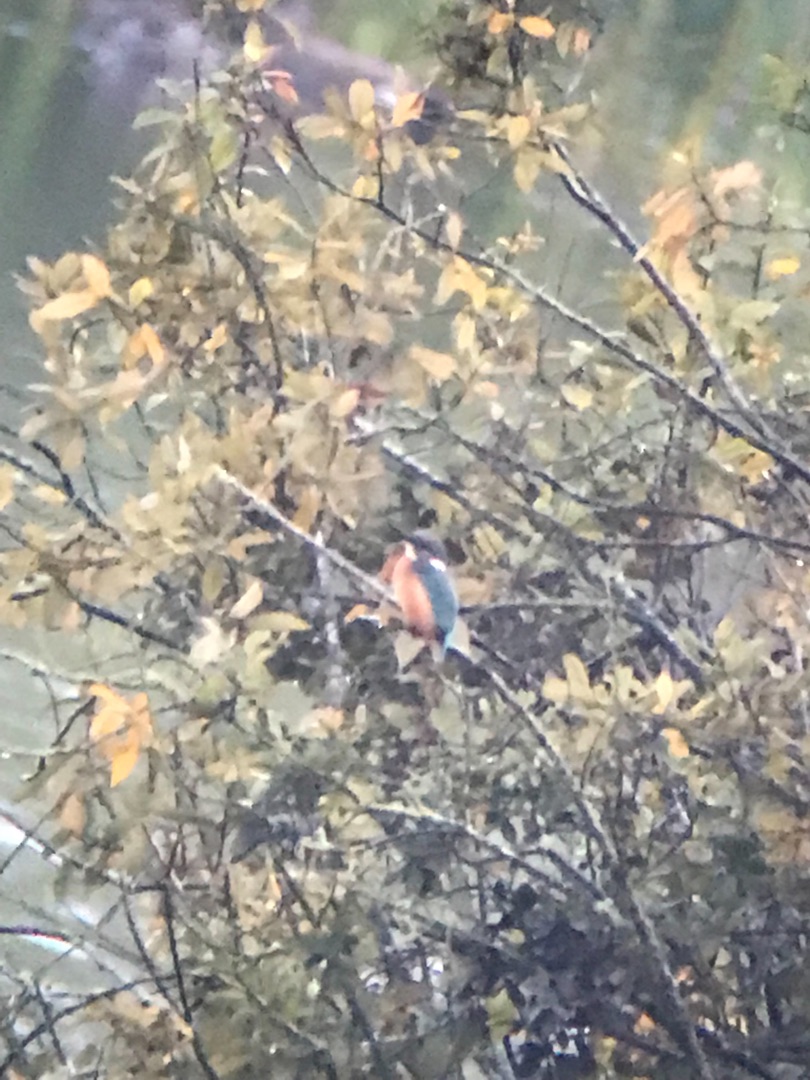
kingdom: Animalia
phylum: Chordata
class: Aves
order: Coraciiformes
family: Alcedinidae
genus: Alcedo
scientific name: Alcedo atthis
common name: Isfugl
